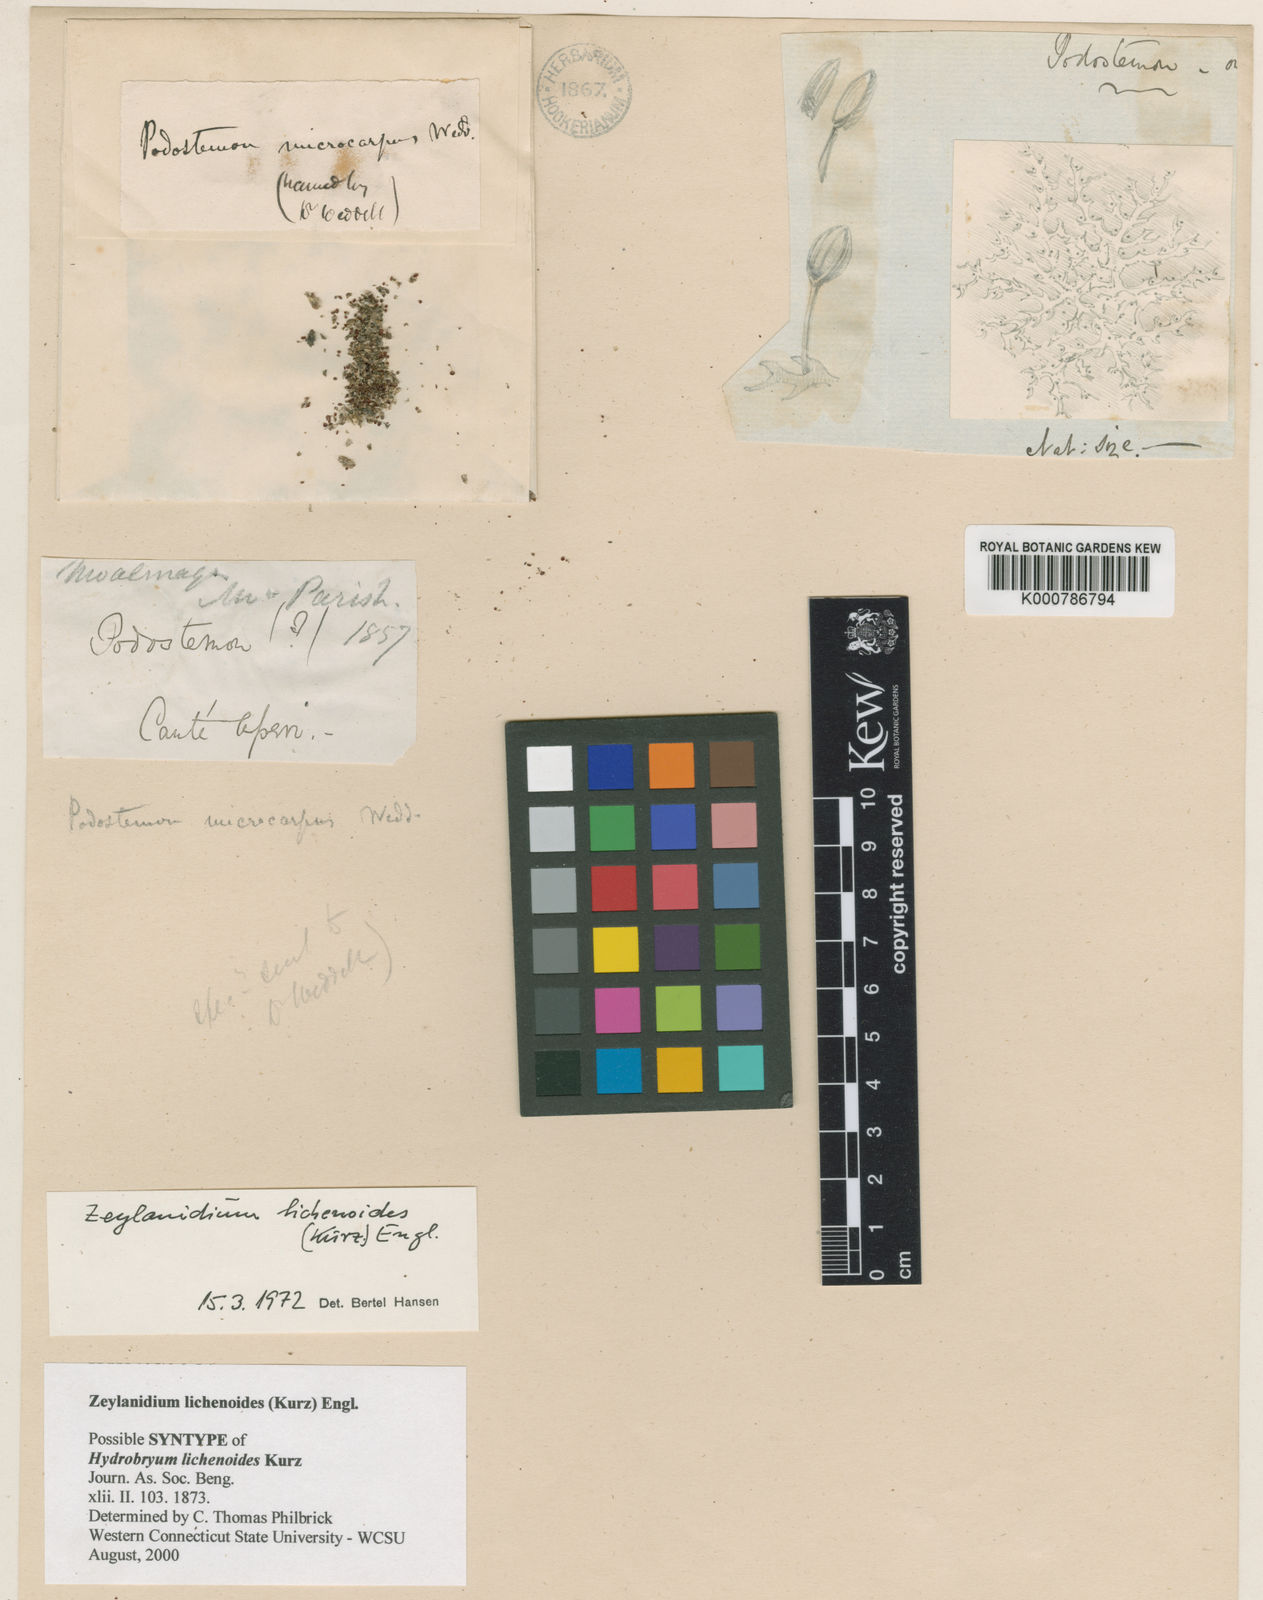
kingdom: Plantae
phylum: Tracheophyta
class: Magnoliopsida
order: Malpighiales
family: Podostemaceae
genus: Zeylanidium
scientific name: Zeylanidium lichenoides
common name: Humped bladderwort
